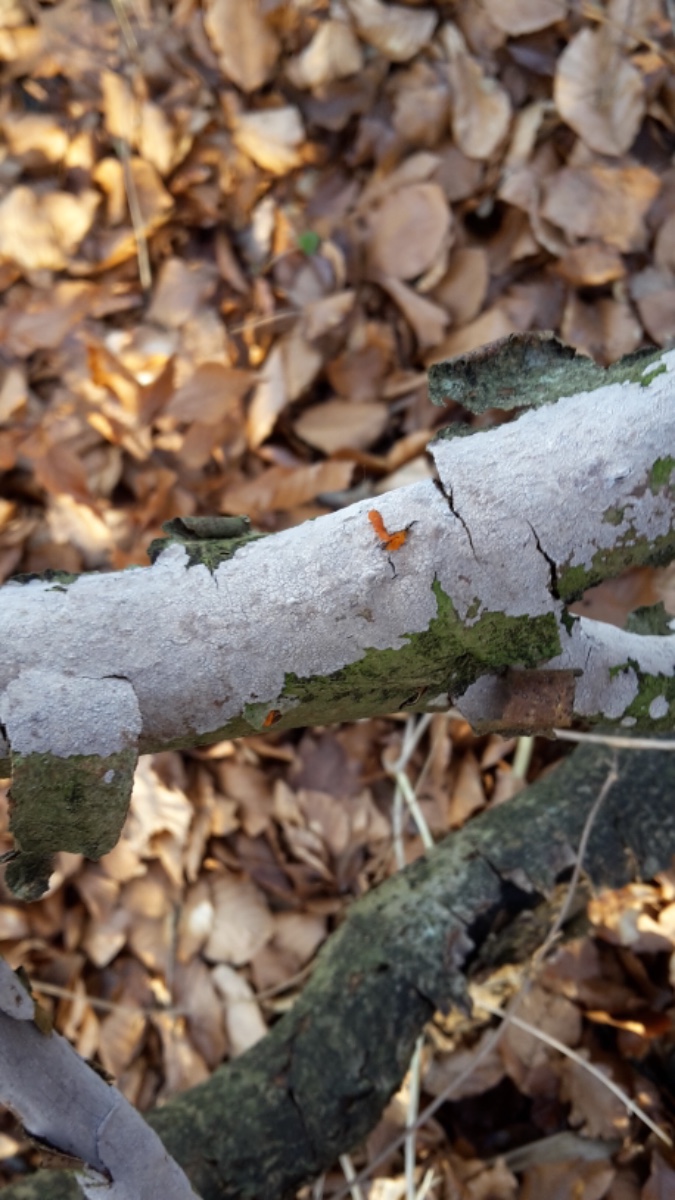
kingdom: Fungi
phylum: Basidiomycota
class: Agaricomycetes
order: Russulales
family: Peniophoraceae
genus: Peniophora
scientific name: Peniophora cinerea
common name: grå voksskind
